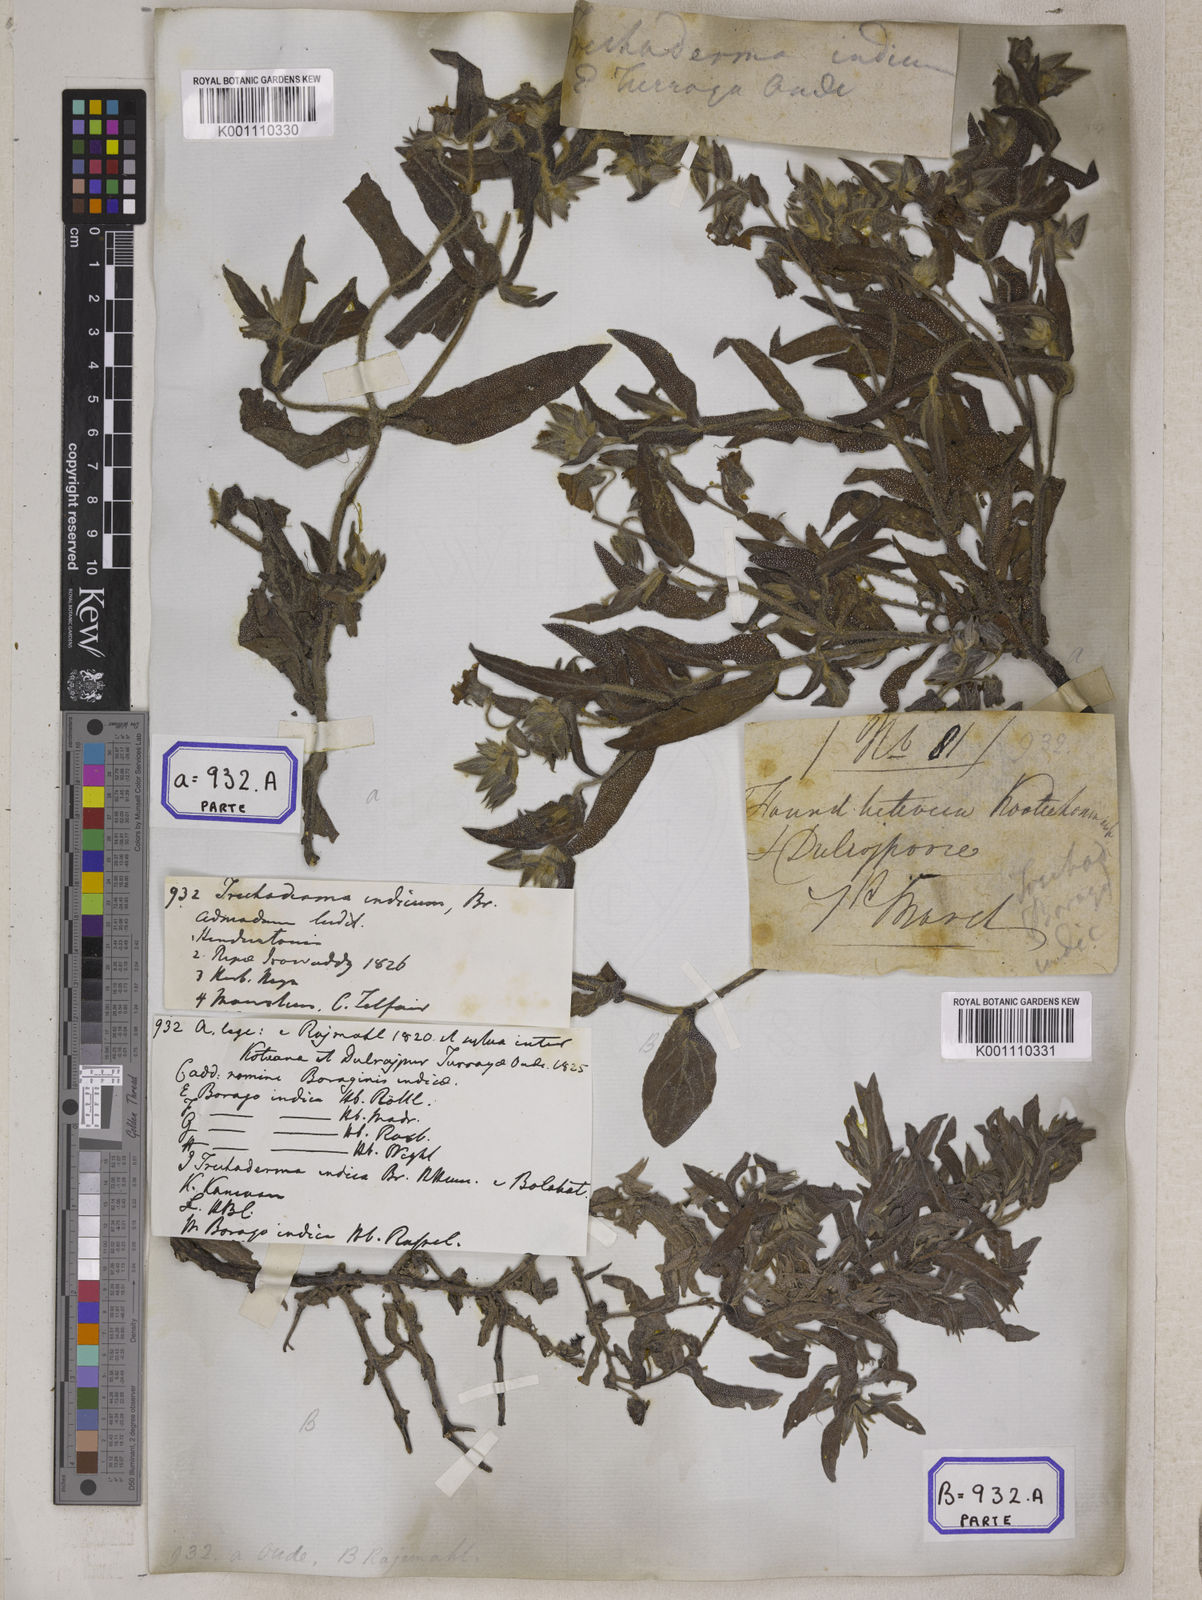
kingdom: Plantae
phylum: Tracheophyta
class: Magnoliopsida
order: Boraginales
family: Boraginaceae
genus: Trichodesma
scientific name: Trichodesma
